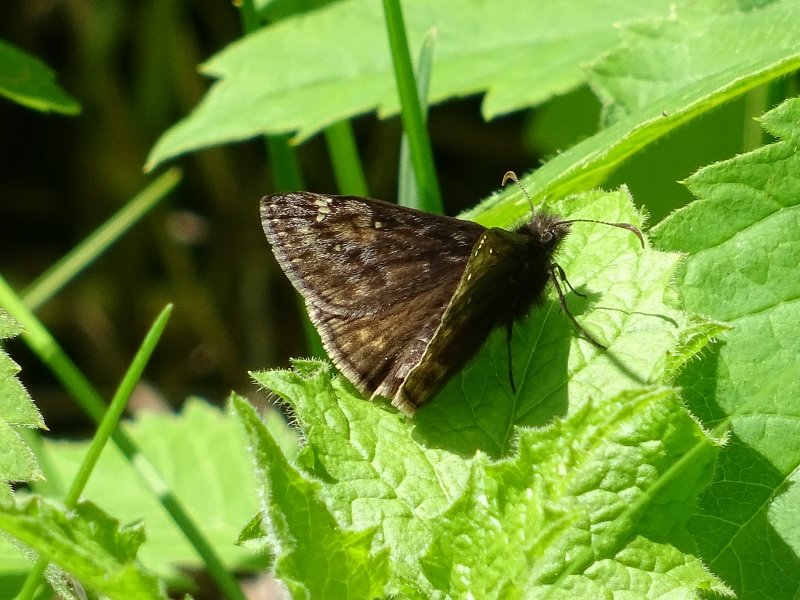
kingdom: Animalia
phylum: Arthropoda
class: Insecta
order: Lepidoptera
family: Hesperiidae
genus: Gesta
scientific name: Gesta
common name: Juvenal's Duskywing
